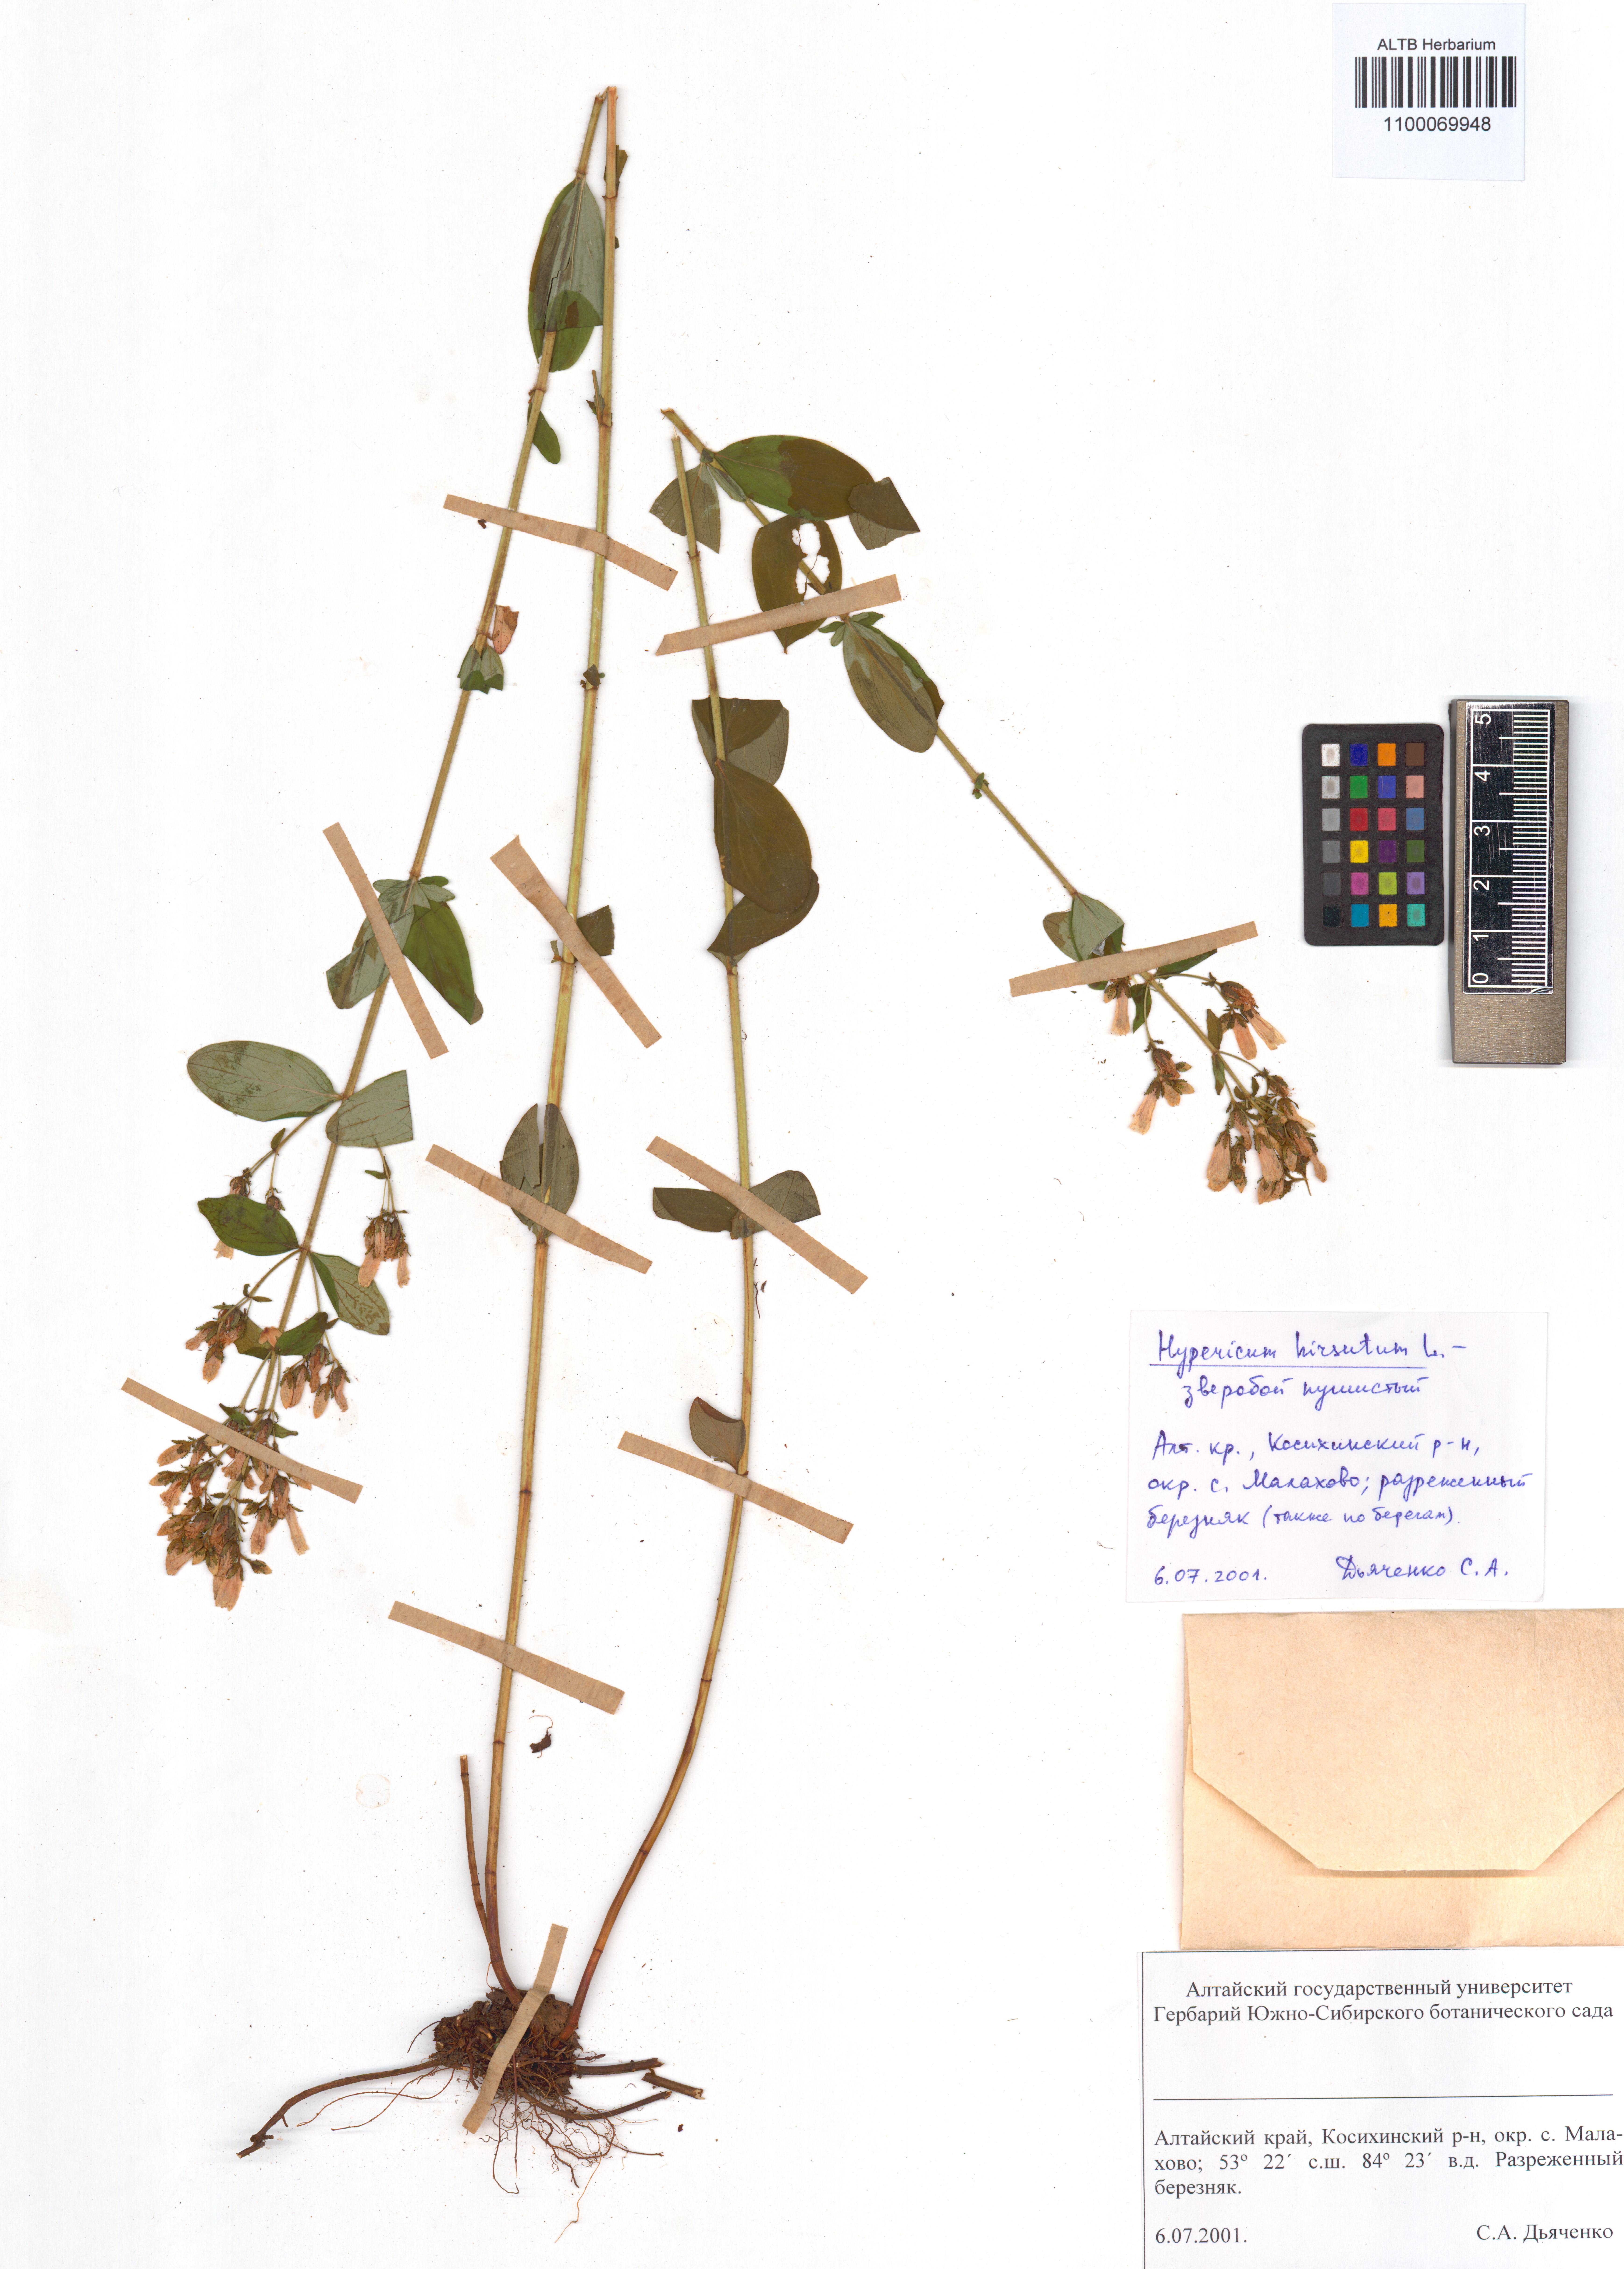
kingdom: Plantae
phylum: Tracheophyta
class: Magnoliopsida
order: Malpighiales
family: Hypericaceae
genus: Hypericum
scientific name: Hypericum hirsutum
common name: Hairy st. john's-wort
